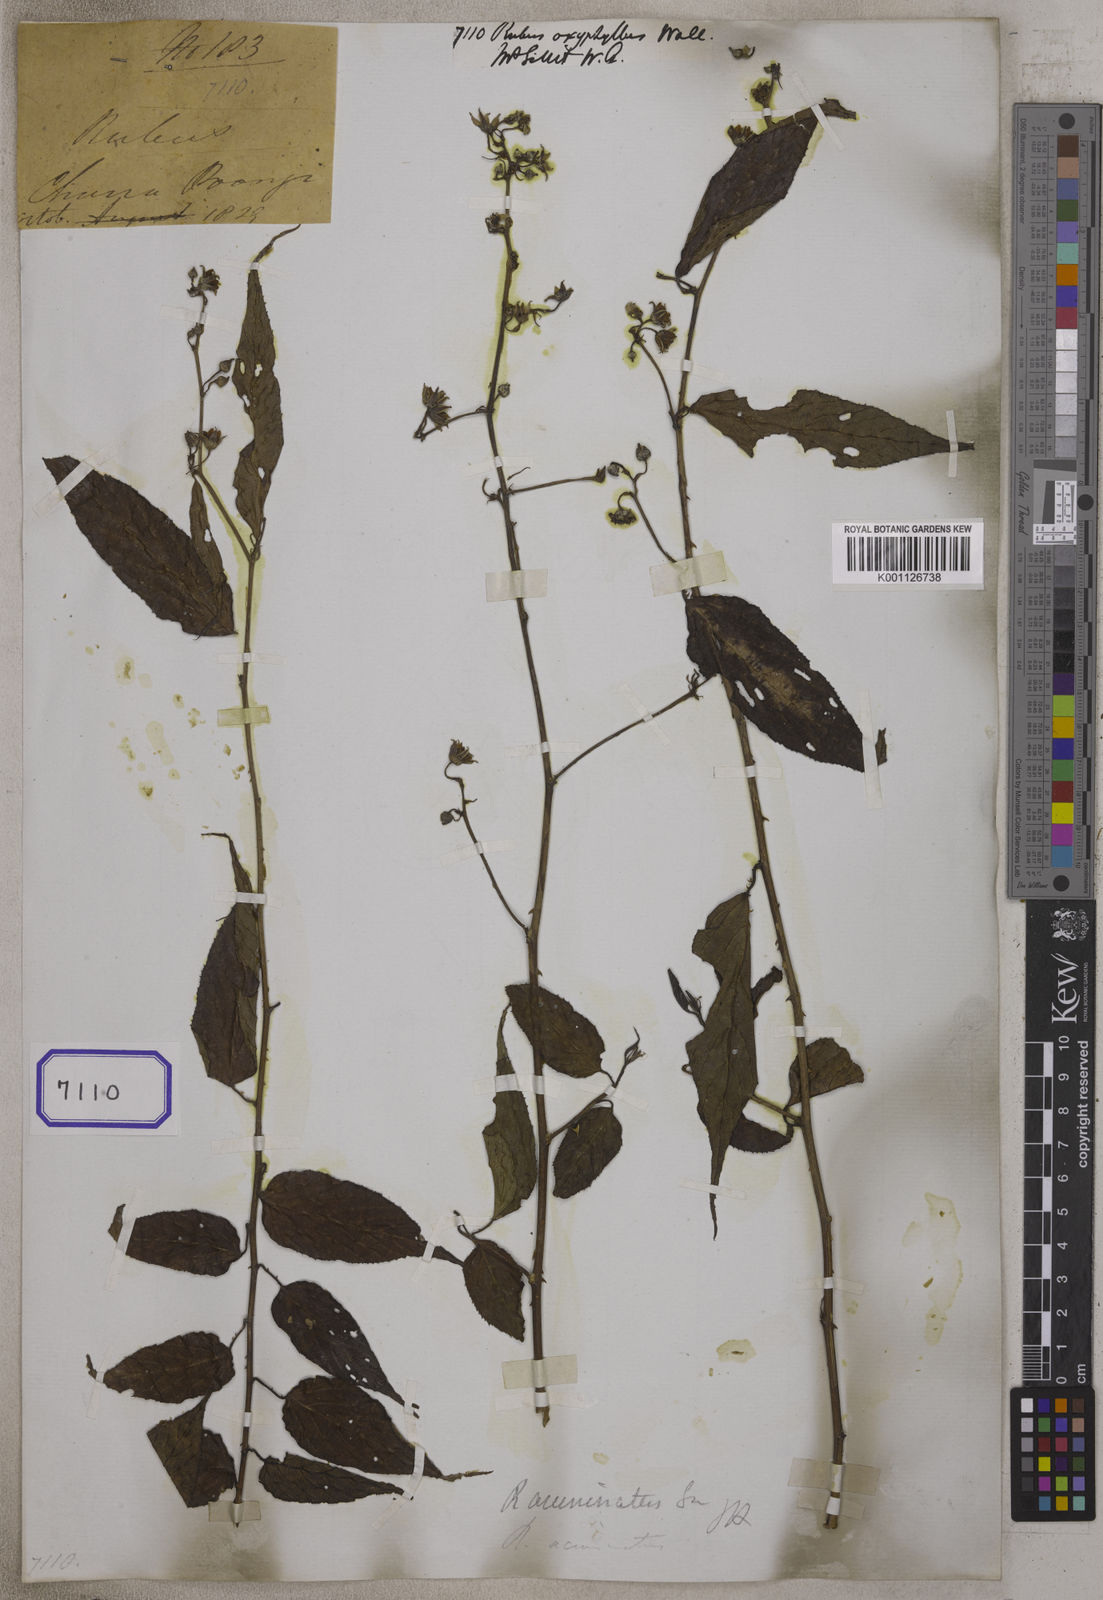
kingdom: Plantae
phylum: Tracheophyta
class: Magnoliopsida
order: Rosales
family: Rosaceae
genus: Rubus
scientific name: Rubus acuminatus
